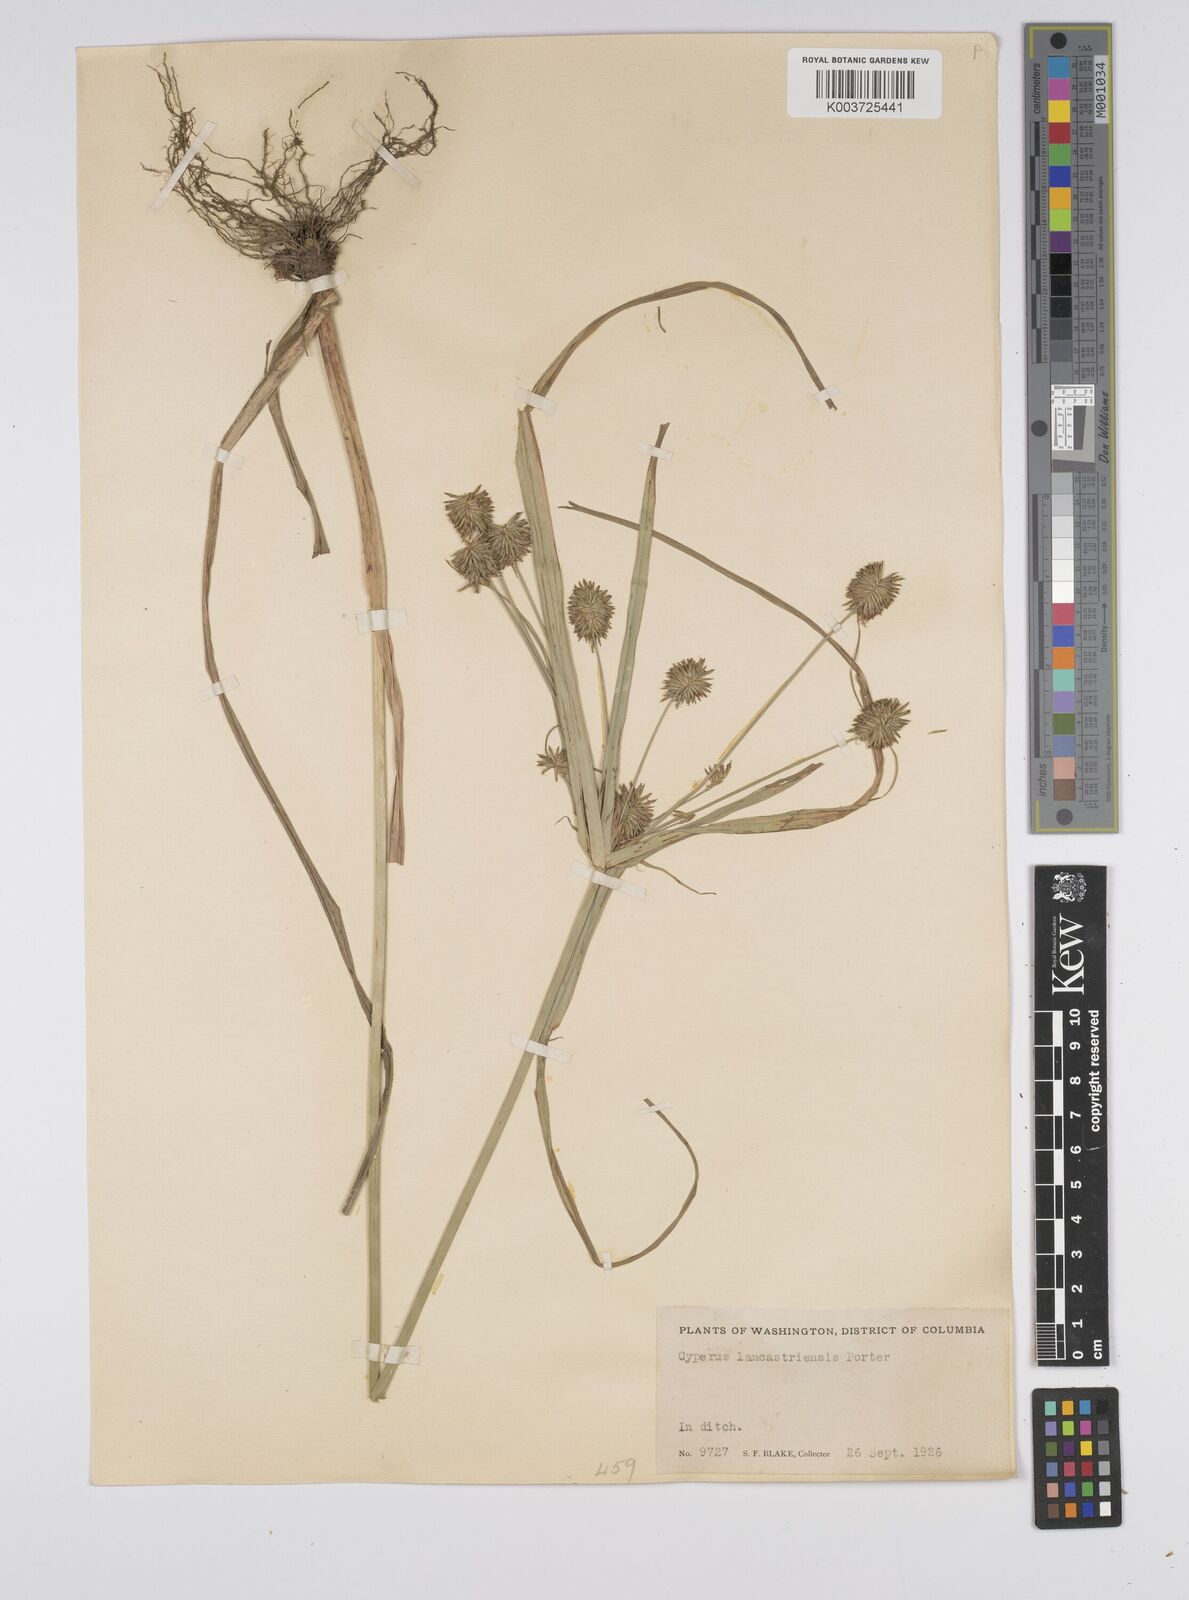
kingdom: Plantae
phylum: Tracheophyta
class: Liliopsida
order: Poales
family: Cyperaceae
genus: Cyperus
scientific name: Cyperus lancastriensis
